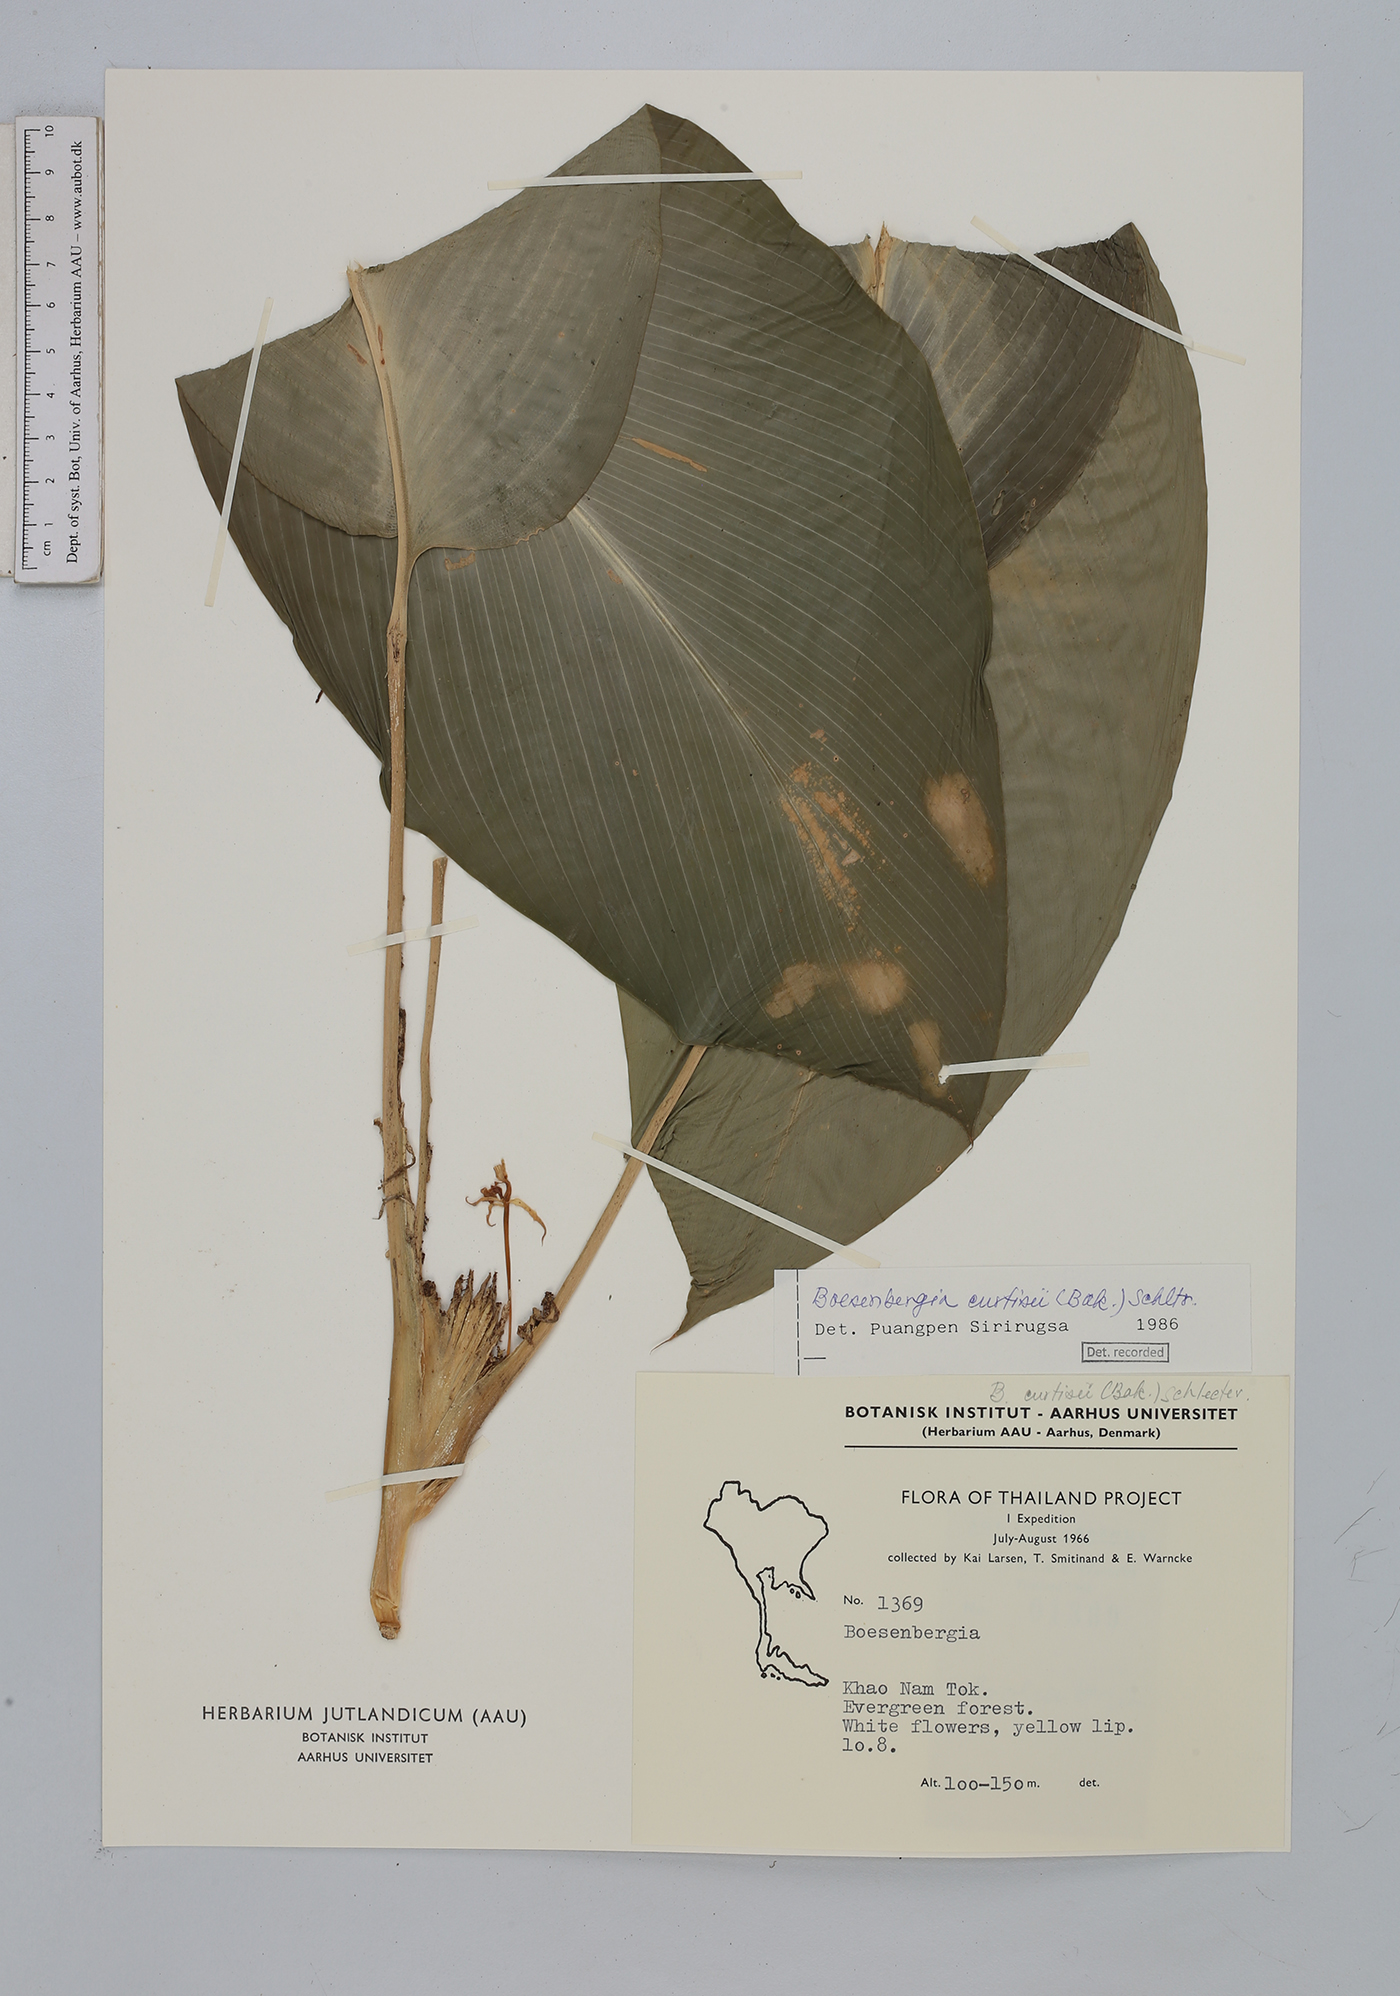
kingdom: Plantae
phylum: Tracheophyta
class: Liliopsida
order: Zingiberales
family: Zingiberaceae
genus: Boesenbergia
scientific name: Boesenbergia
